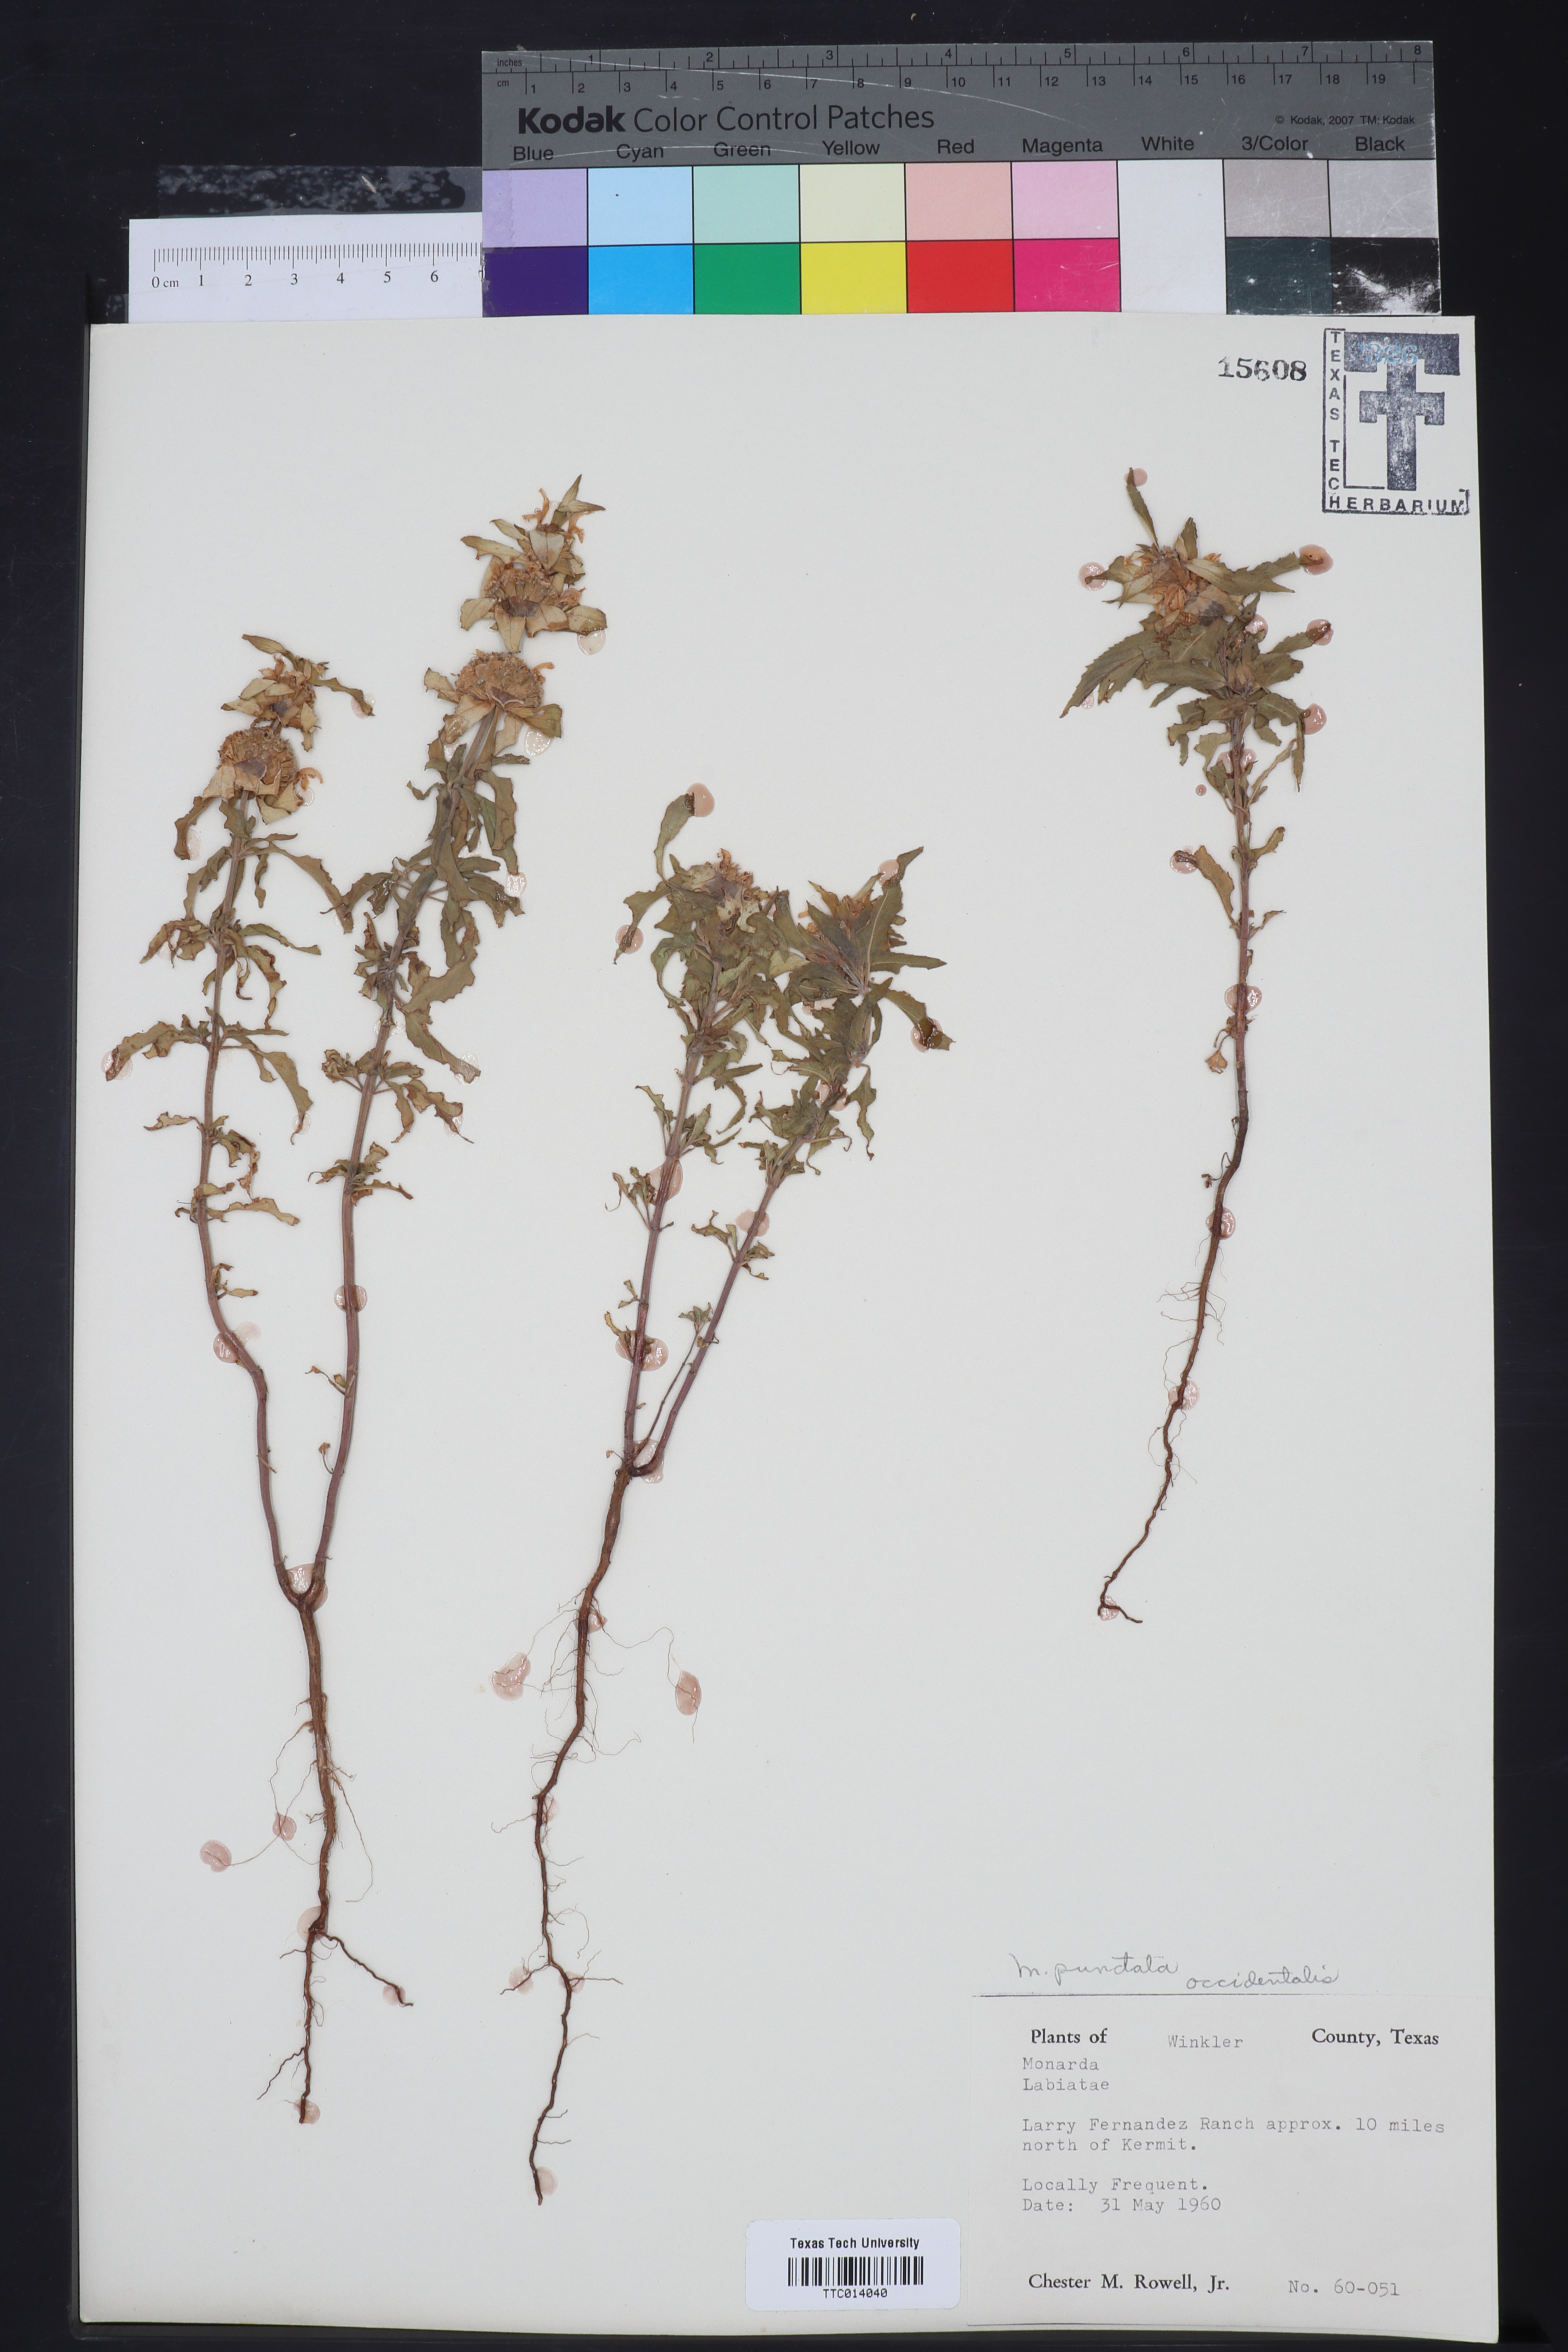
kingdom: Plantae
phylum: Tracheophyta
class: Magnoliopsida
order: Lamiales
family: Lamiaceae
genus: Monarda
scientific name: Monarda punctata
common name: Dotted monarda
